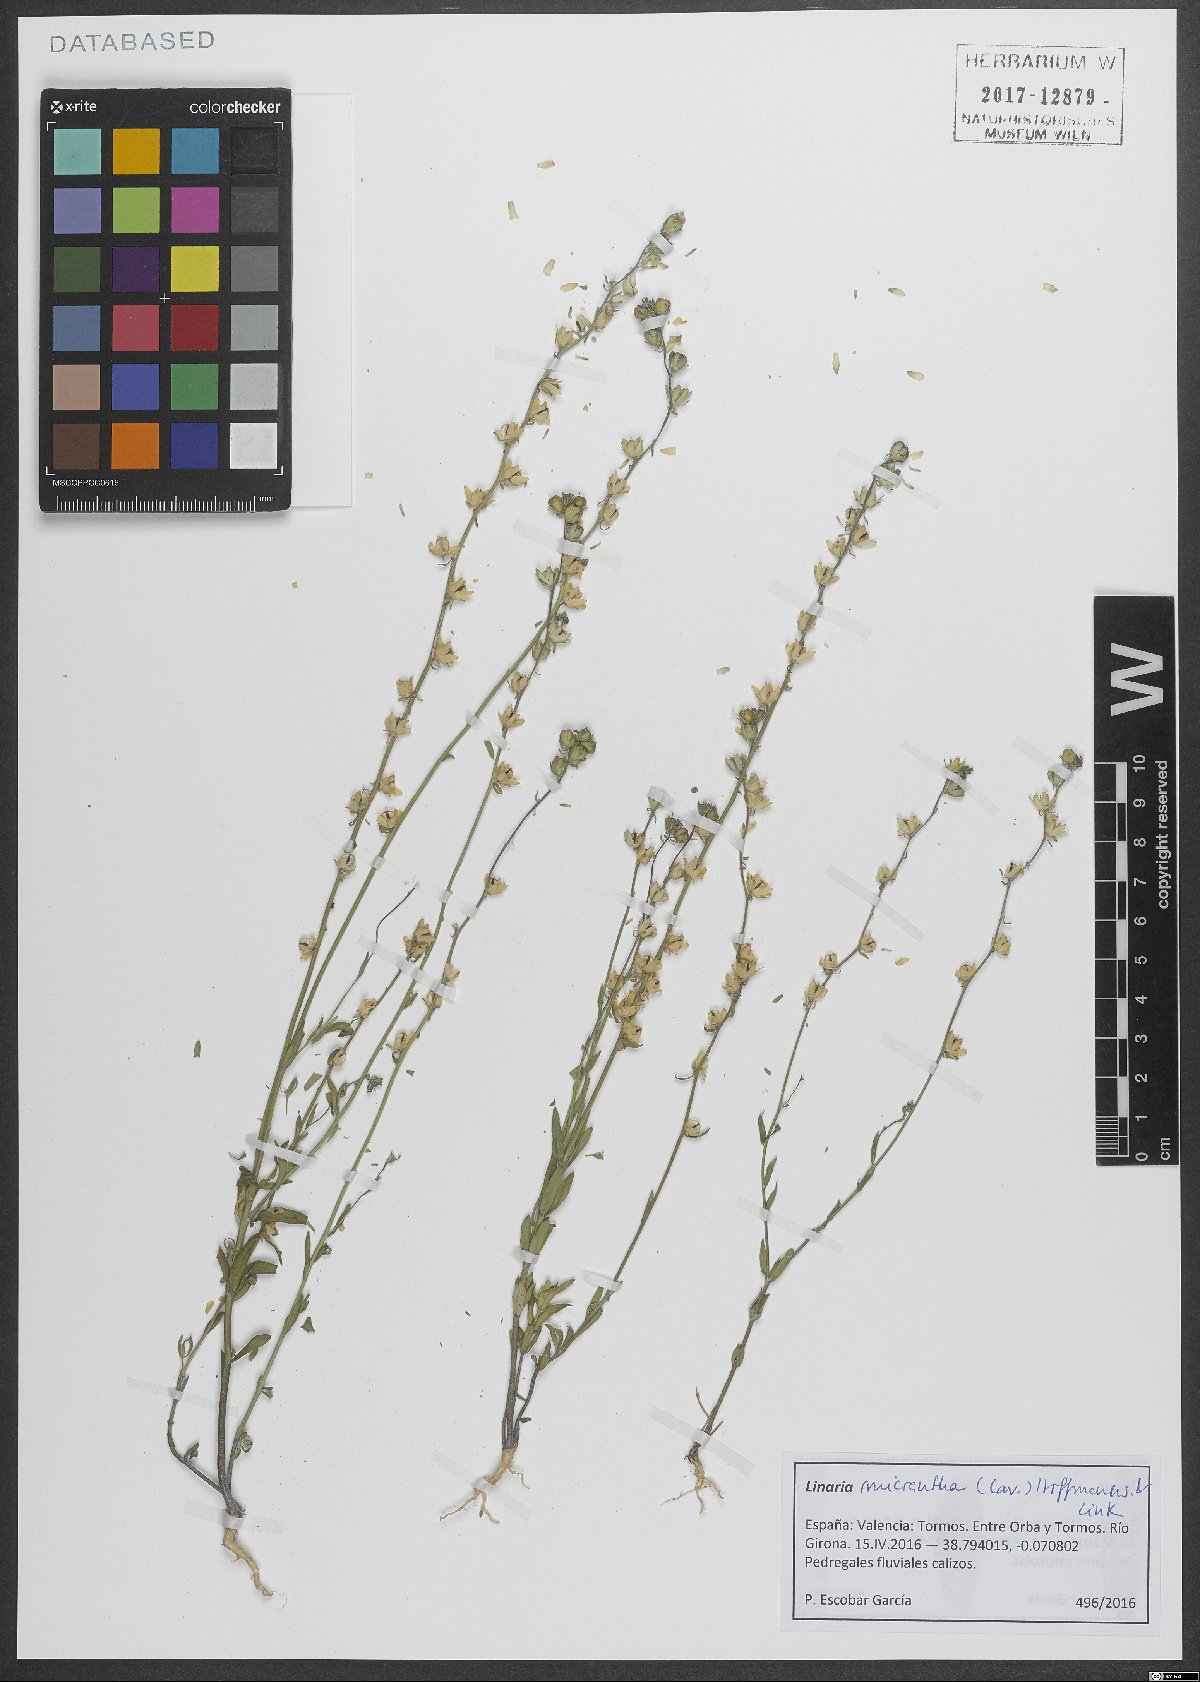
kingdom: Plantae
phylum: Tracheophyta
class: Magnoliopsida
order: Lamiales
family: Plantaginaceae
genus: Linaria
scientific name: Linaria micrantha
